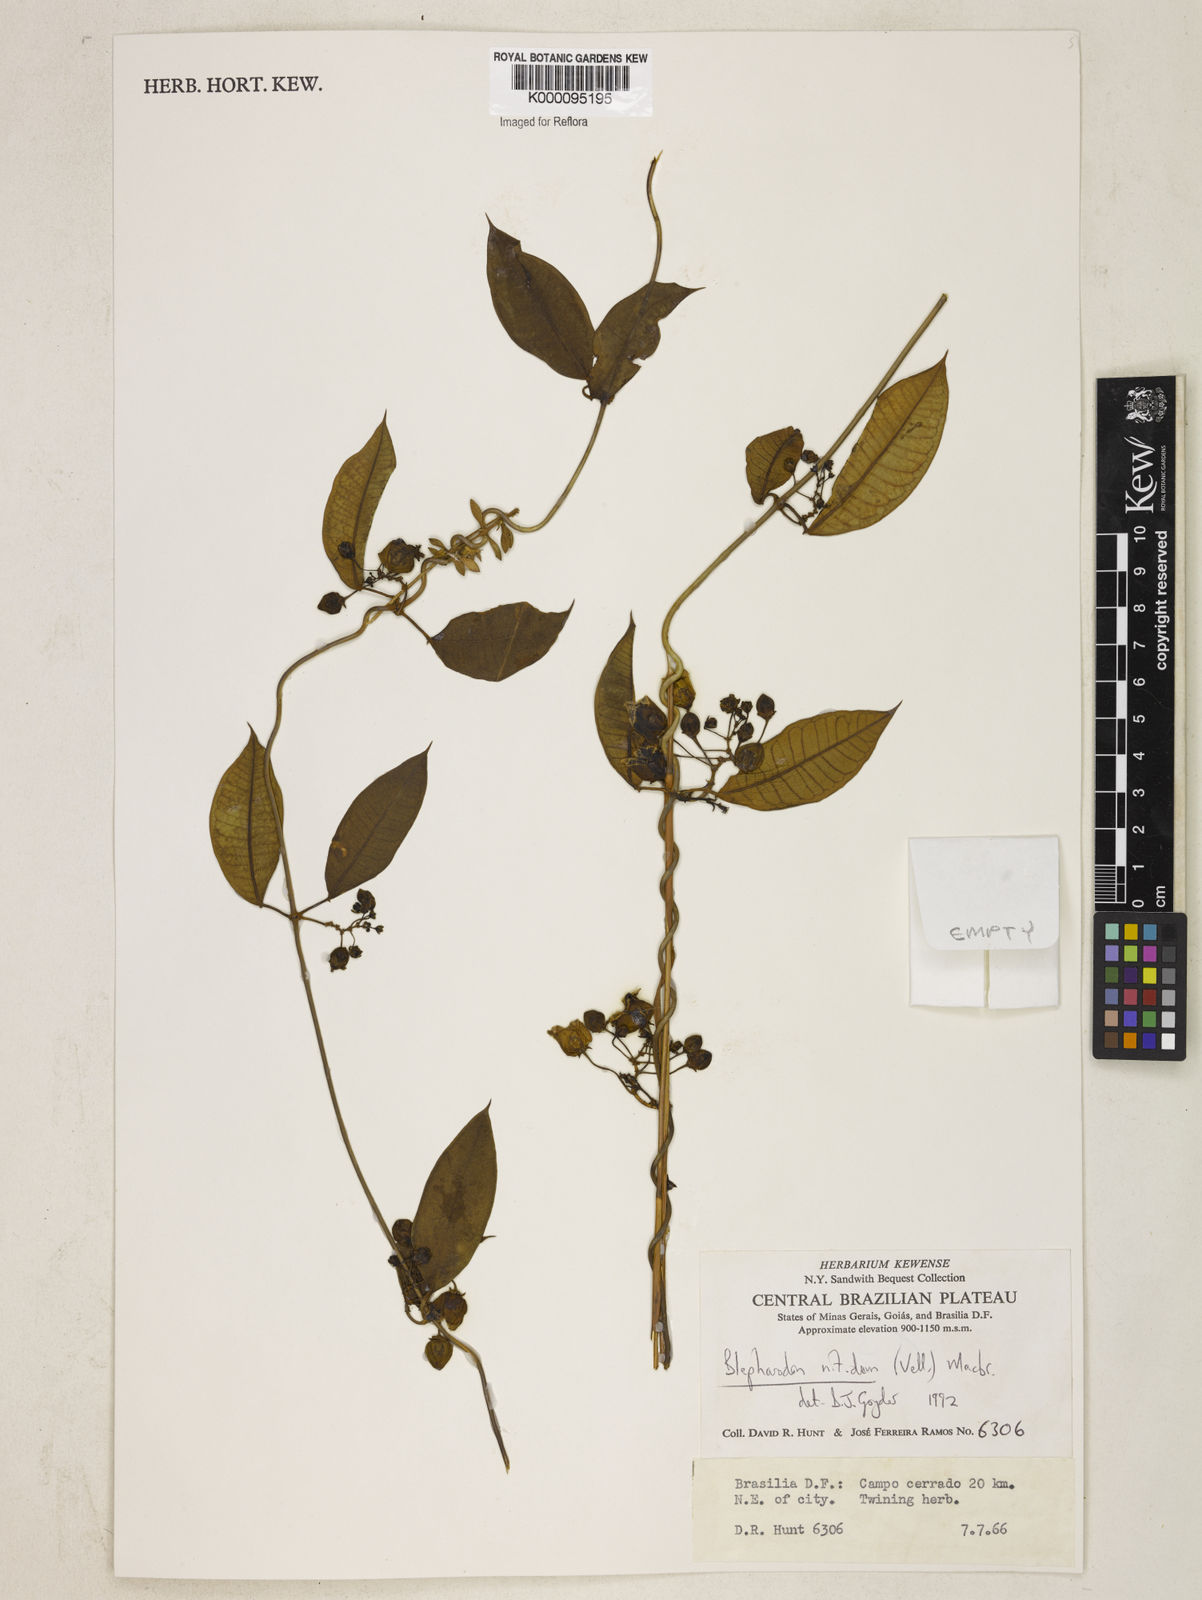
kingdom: Plantae
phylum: Tracheophyta
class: Magnoliopsida
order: Gentianales
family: Apocynaceae
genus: Blepharodon
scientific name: Blepharodon pictum
